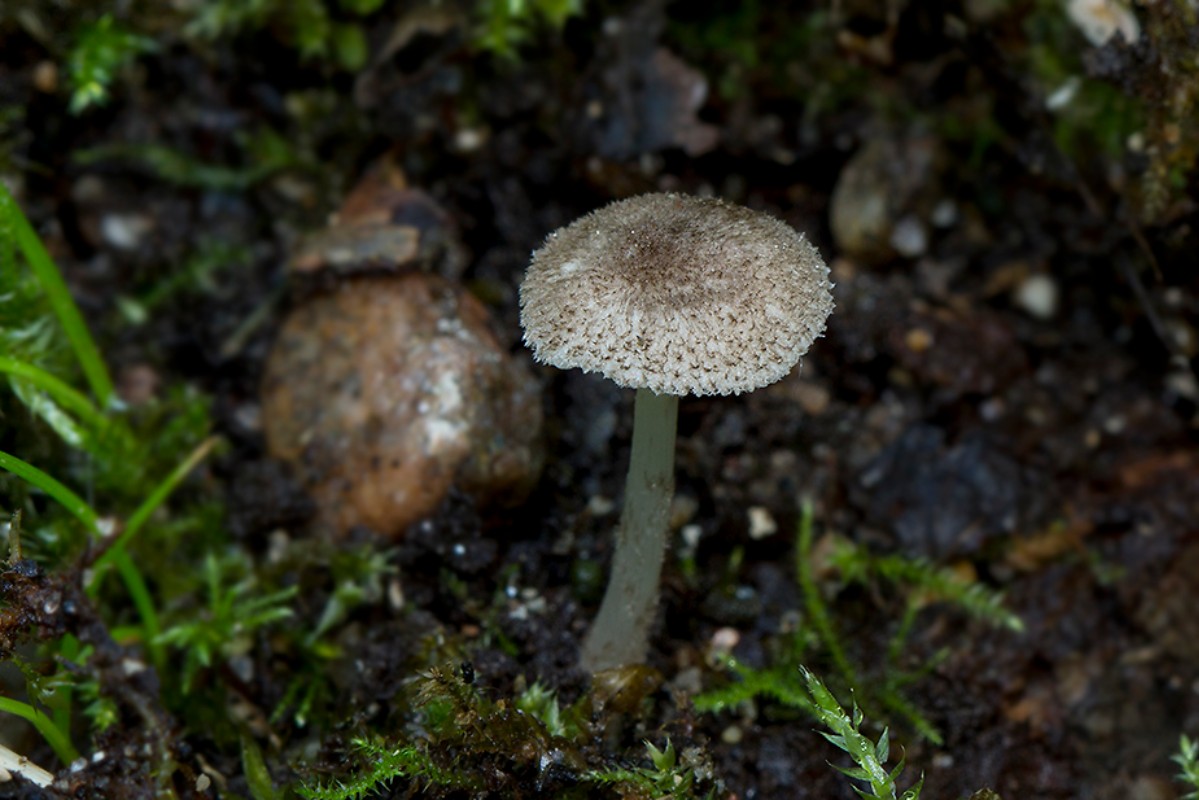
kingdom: Fungi
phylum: Basidiomycota
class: Agaricomycetes
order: Agaricales
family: Pluteaceae
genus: Pluteus
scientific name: Pluteus hispidulus
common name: Fleecy shield
